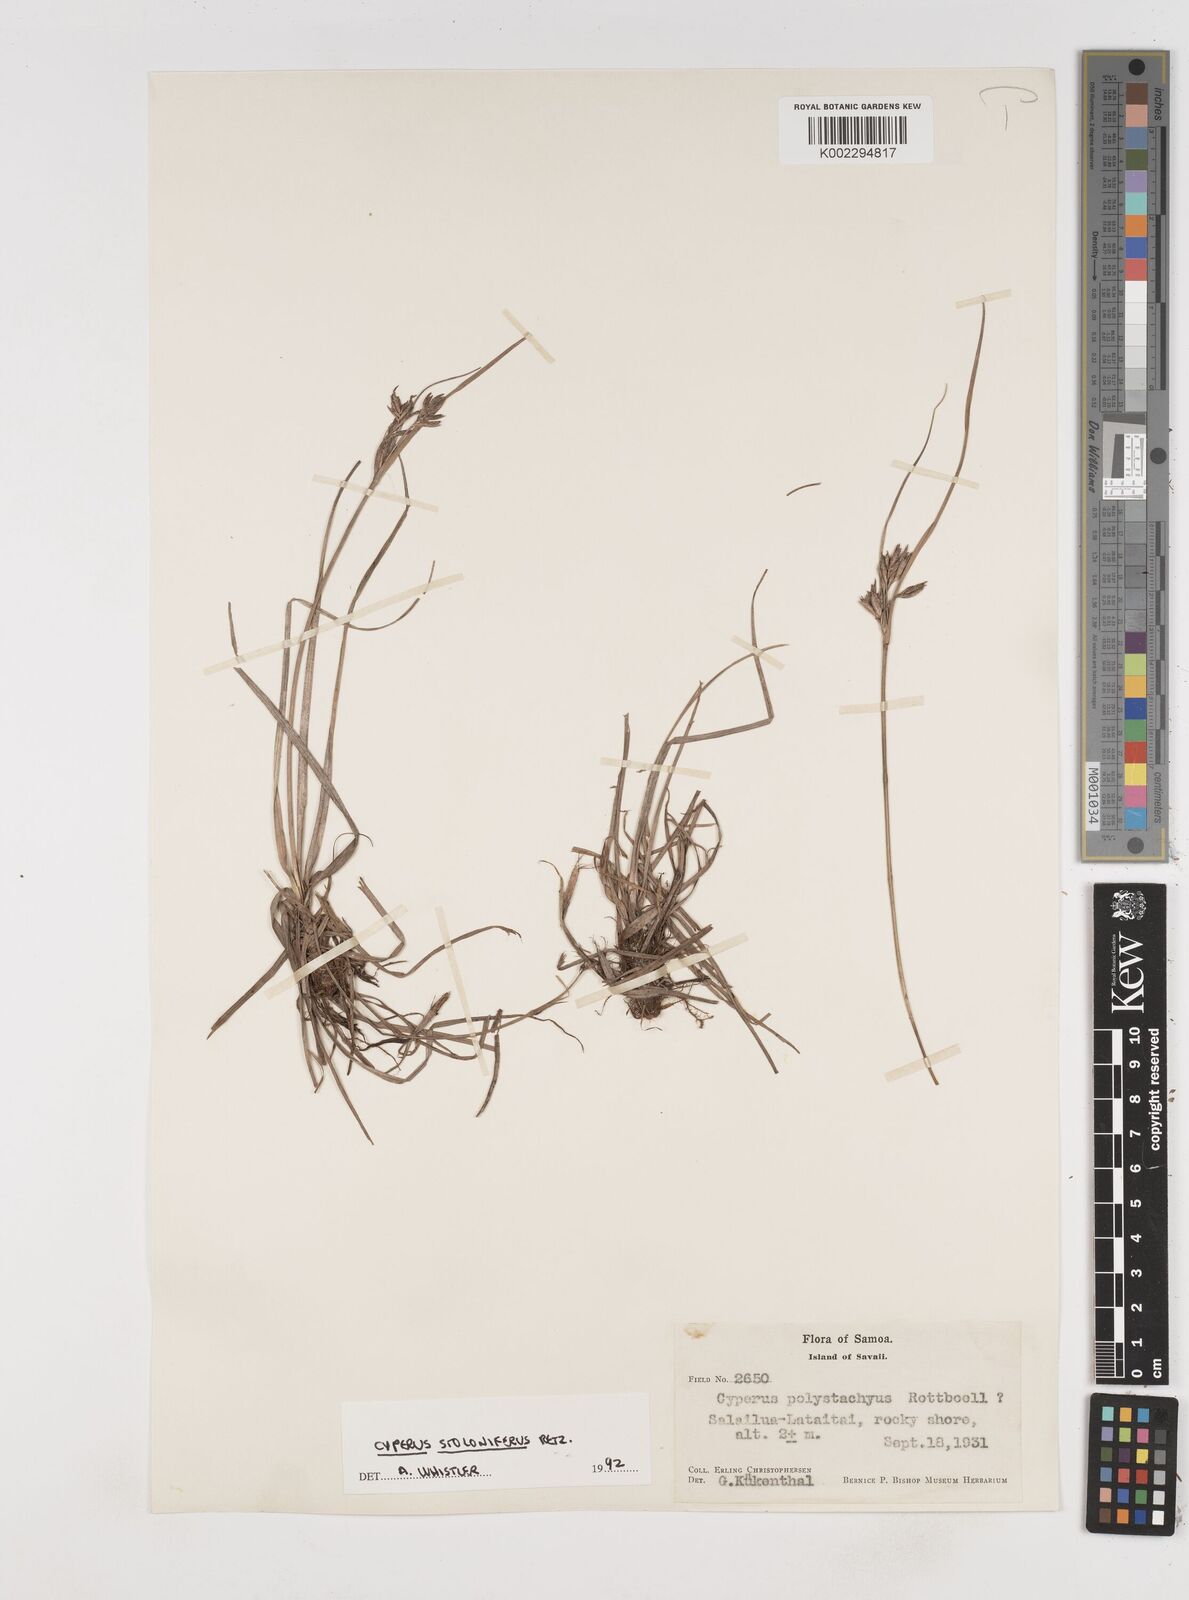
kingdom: Plantae
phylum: Tracheophyta
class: Liliopsida
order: Poales
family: Cyperaceae
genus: Cyperus
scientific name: Cyperus stolonifer
